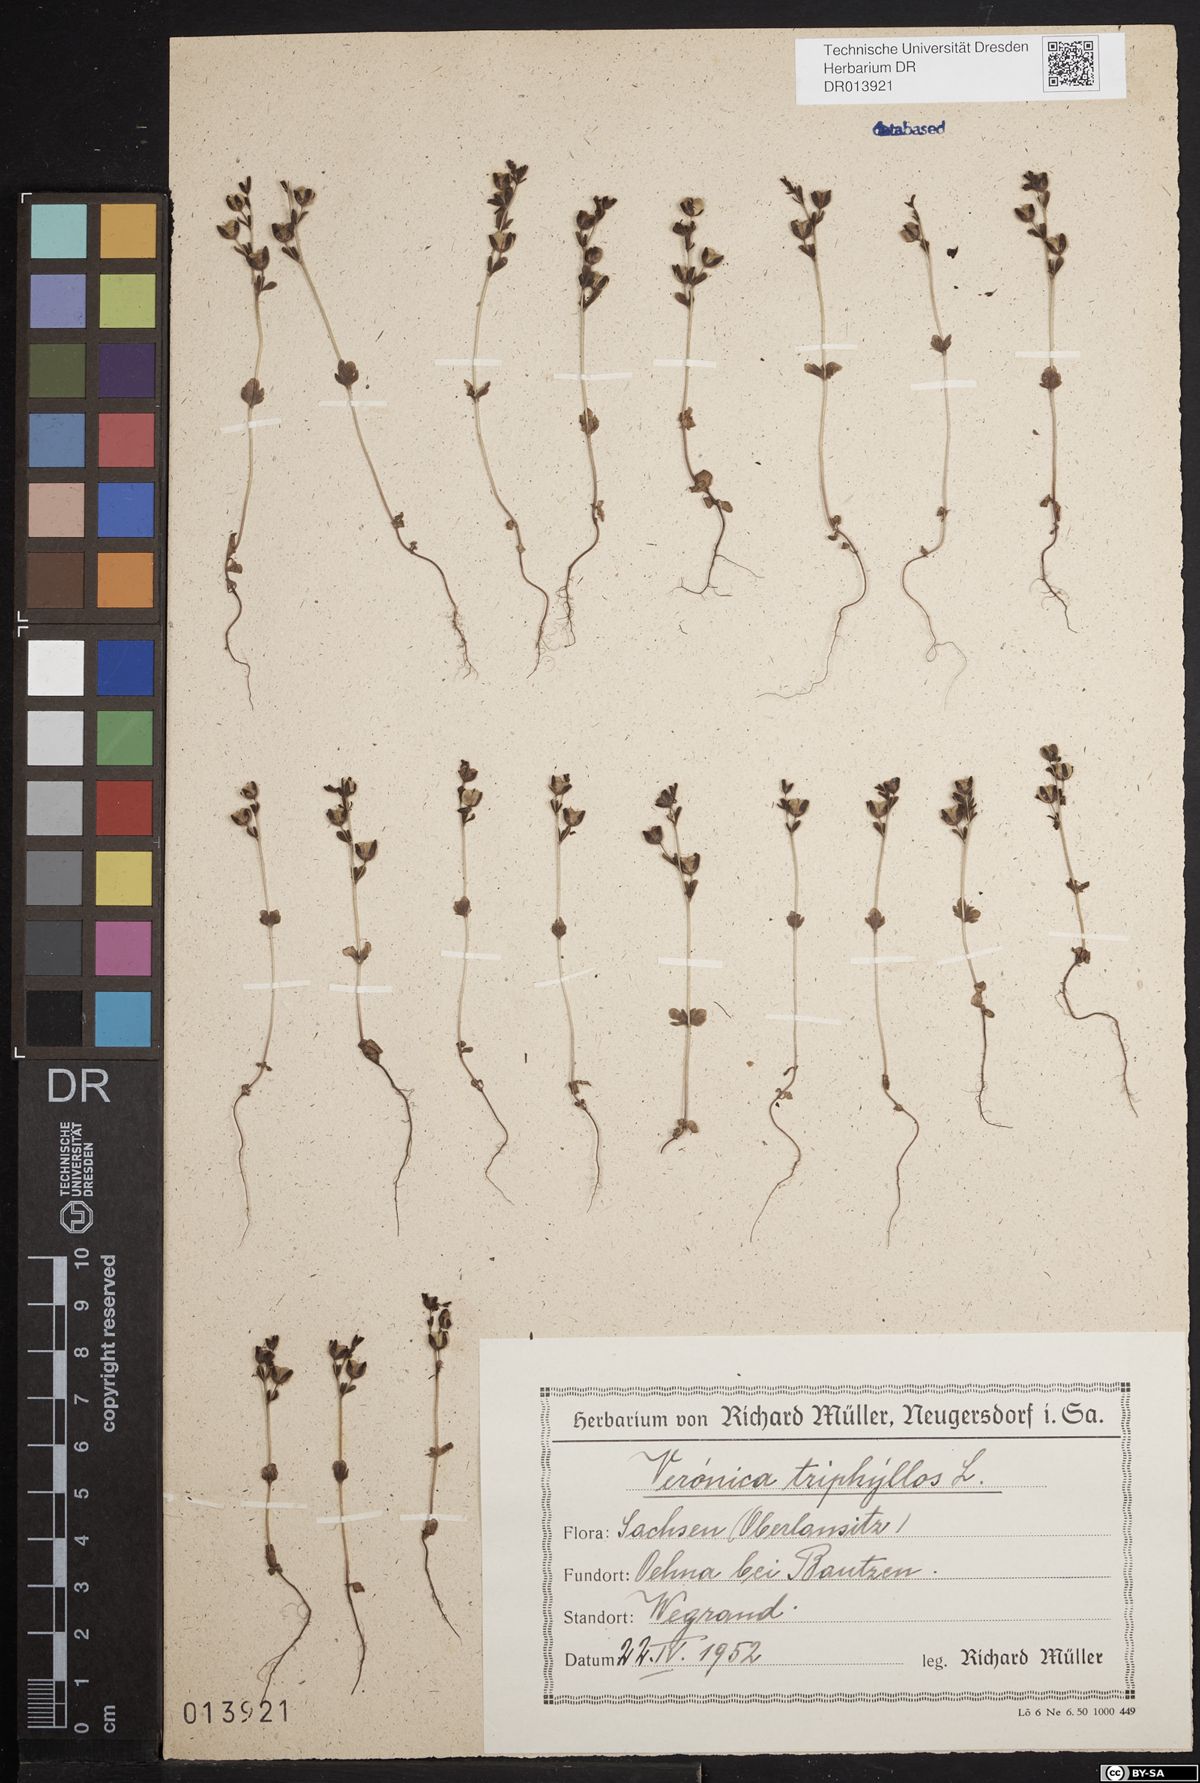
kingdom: Plantae
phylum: Tracheophyta
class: Magnoliopsida
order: Lamiales
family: Plantaginaceae
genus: Veronica
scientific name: Veronica triphyllos
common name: Fingered speedwell
